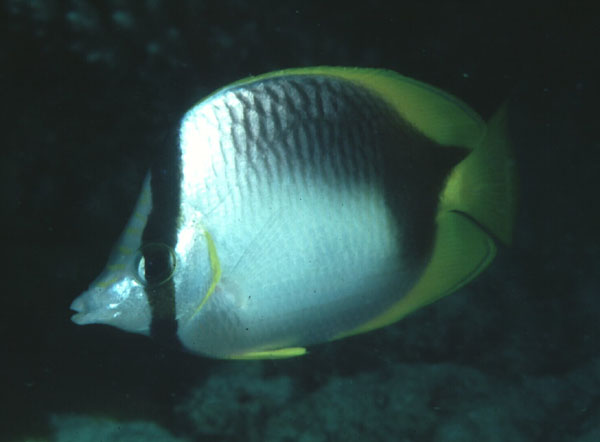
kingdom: Animalia
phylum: Chordata
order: Perciformes
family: Chaetodontidae
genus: Chaetodon
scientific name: Chaetodon leucopleura
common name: Somali butterflyfish
